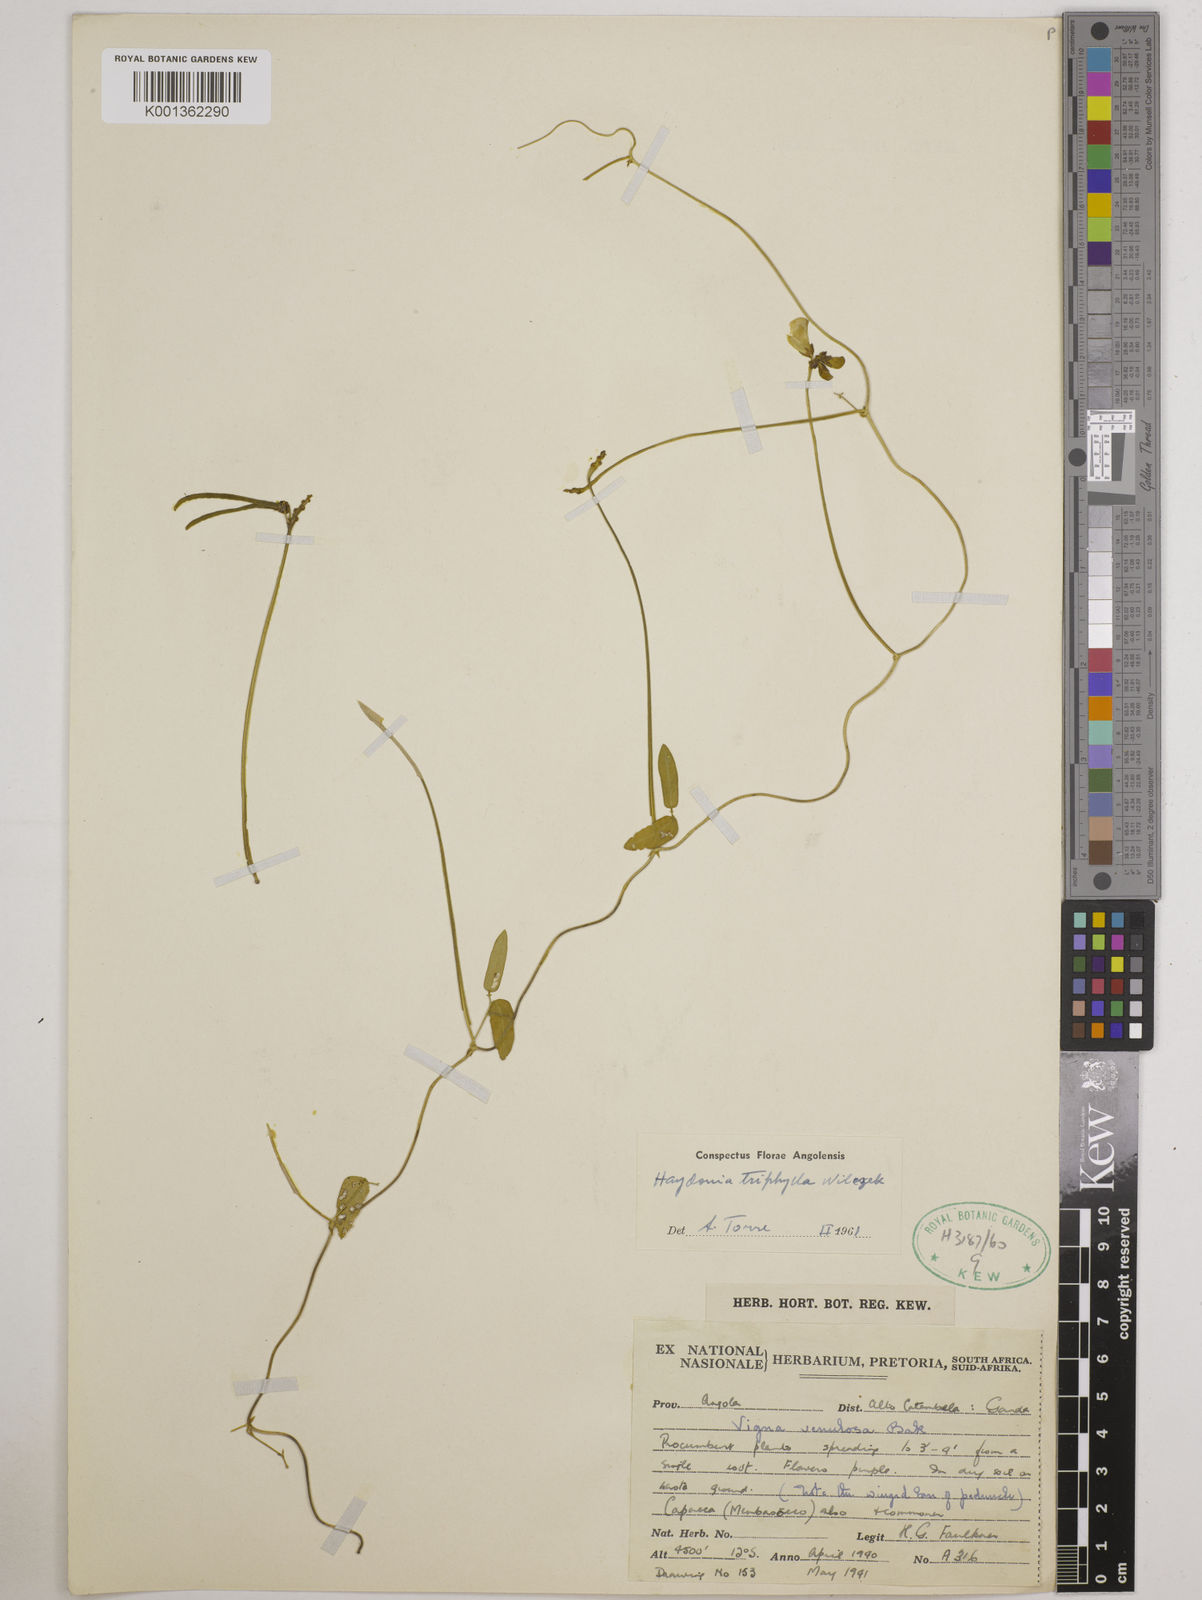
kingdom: Plantae
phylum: Tracheophyta
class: Magnoliopsida
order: Fabales
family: Fabaceae
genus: Vigna
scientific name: Vigna triphylla
